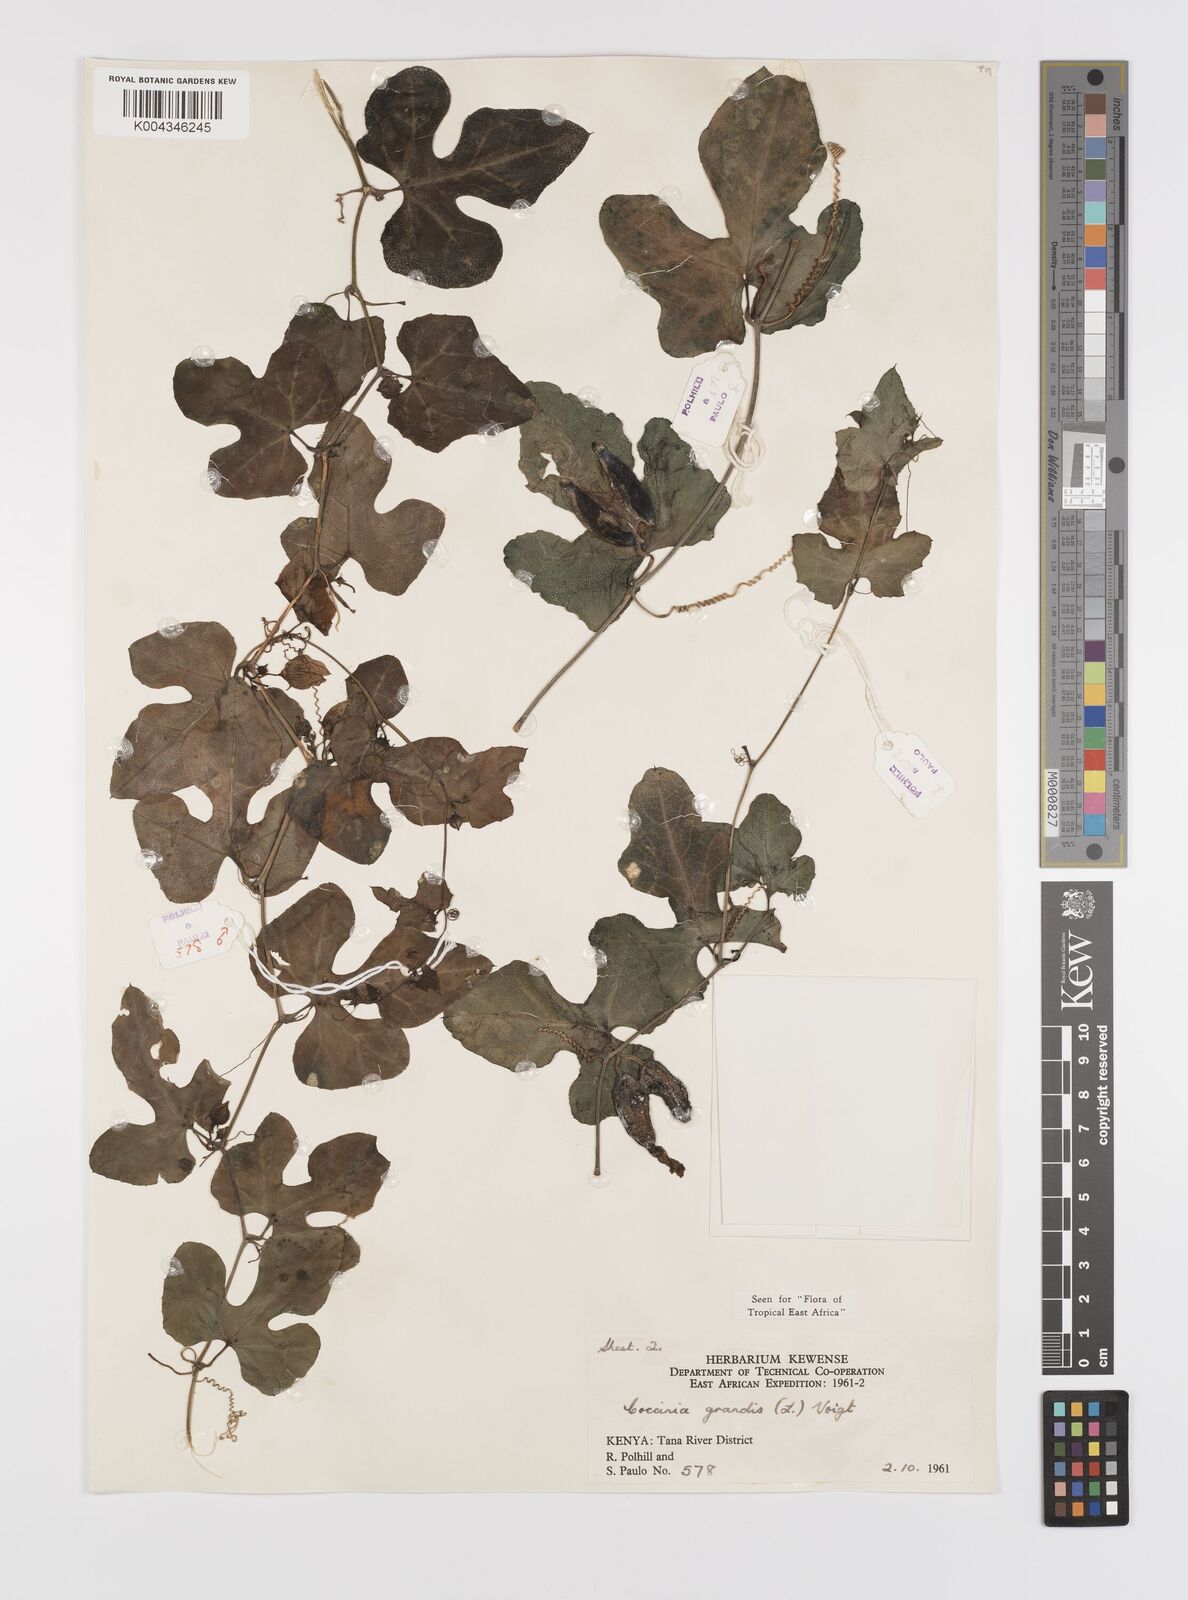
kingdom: Plantae
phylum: Tracheophyta
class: Magnoliopsida
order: Cucurbitales
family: Cucurbitaceae
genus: Coccinia
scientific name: Coccinia grandis
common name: Ivy gourd
